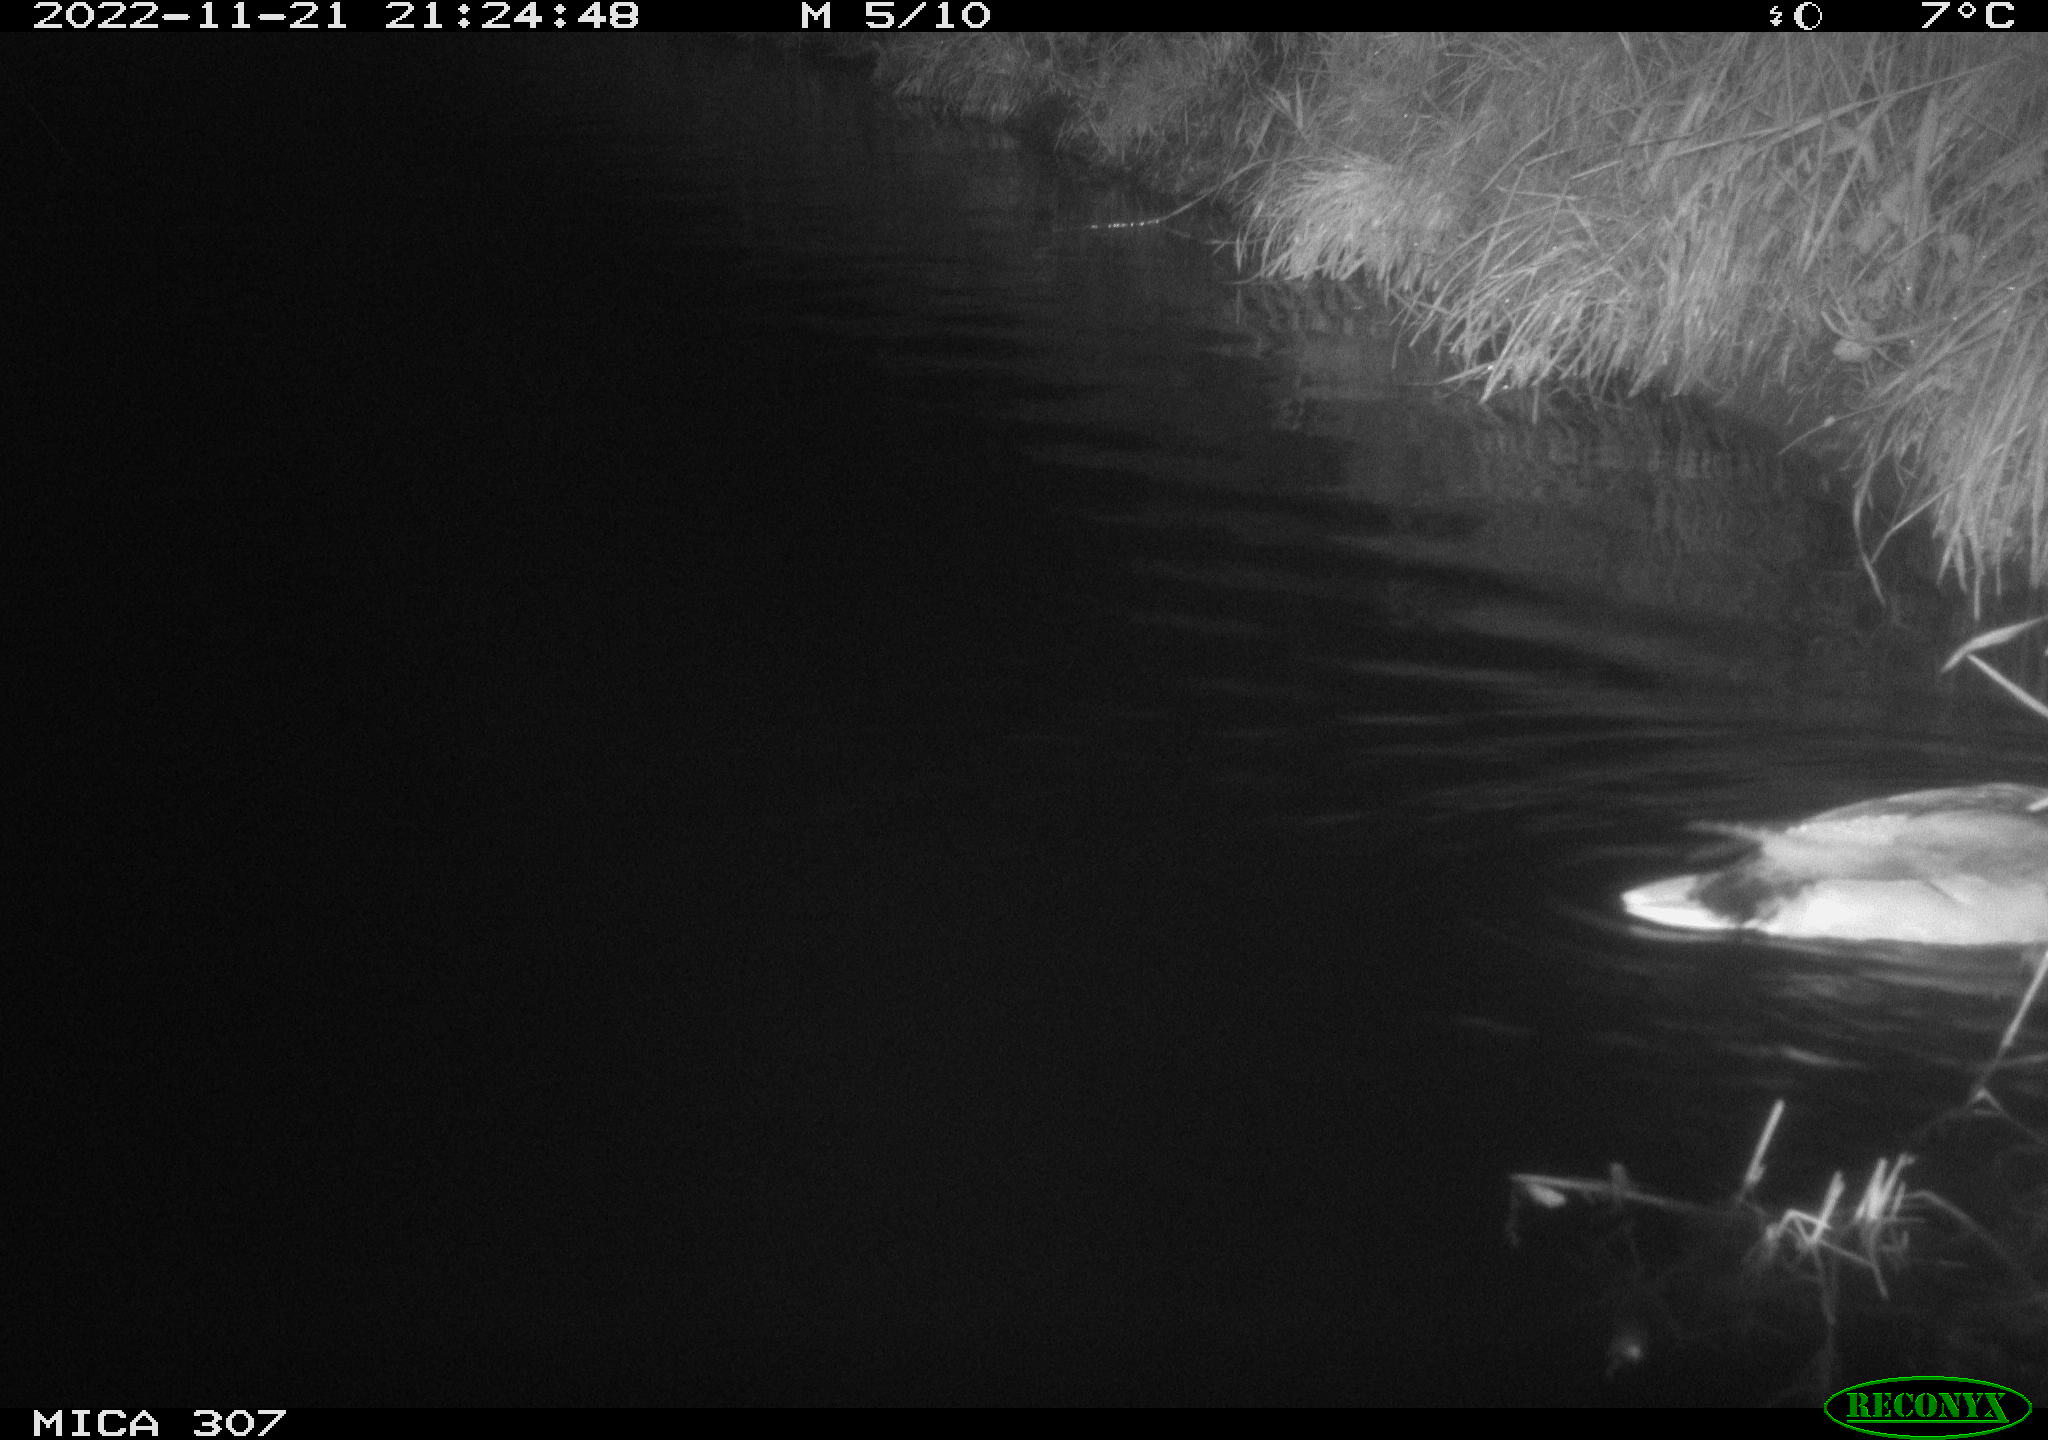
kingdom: Animalia
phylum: Chordata
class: Aves
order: Anseriformes
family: Anatidae
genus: Anas
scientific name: Anas
